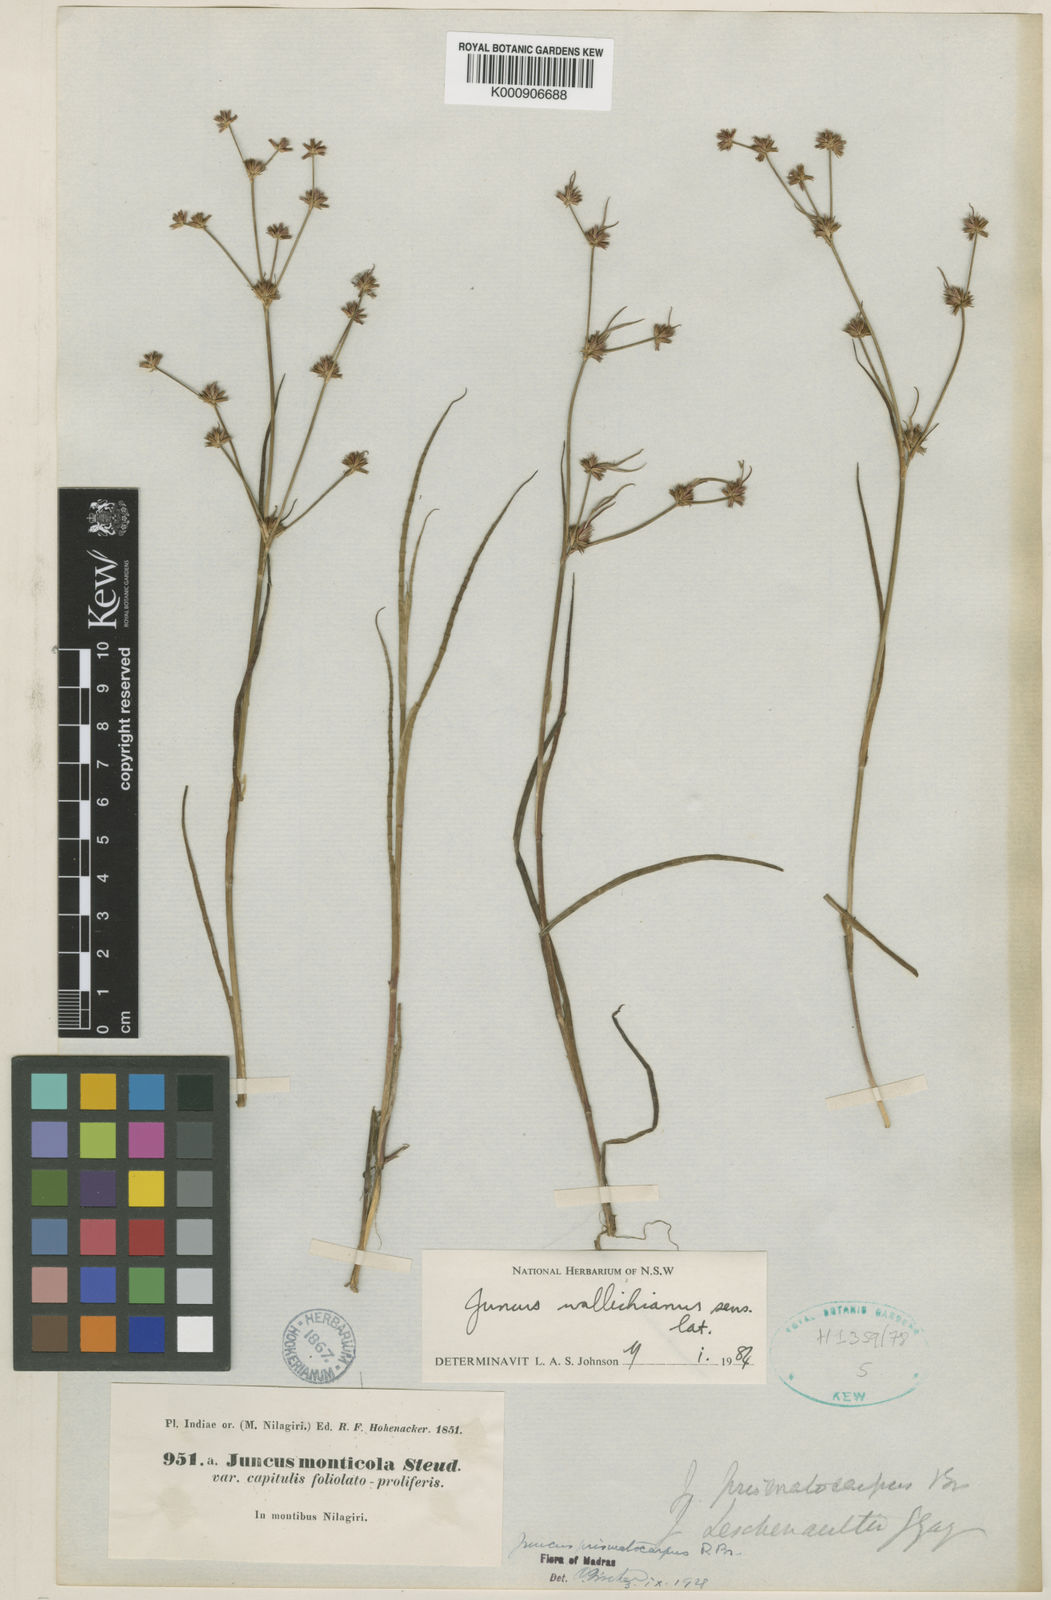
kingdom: Plantae
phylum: Tracheophyta
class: Liliopsida
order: Poales
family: Juncaceae
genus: Juncus
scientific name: Juncus wallichianus
